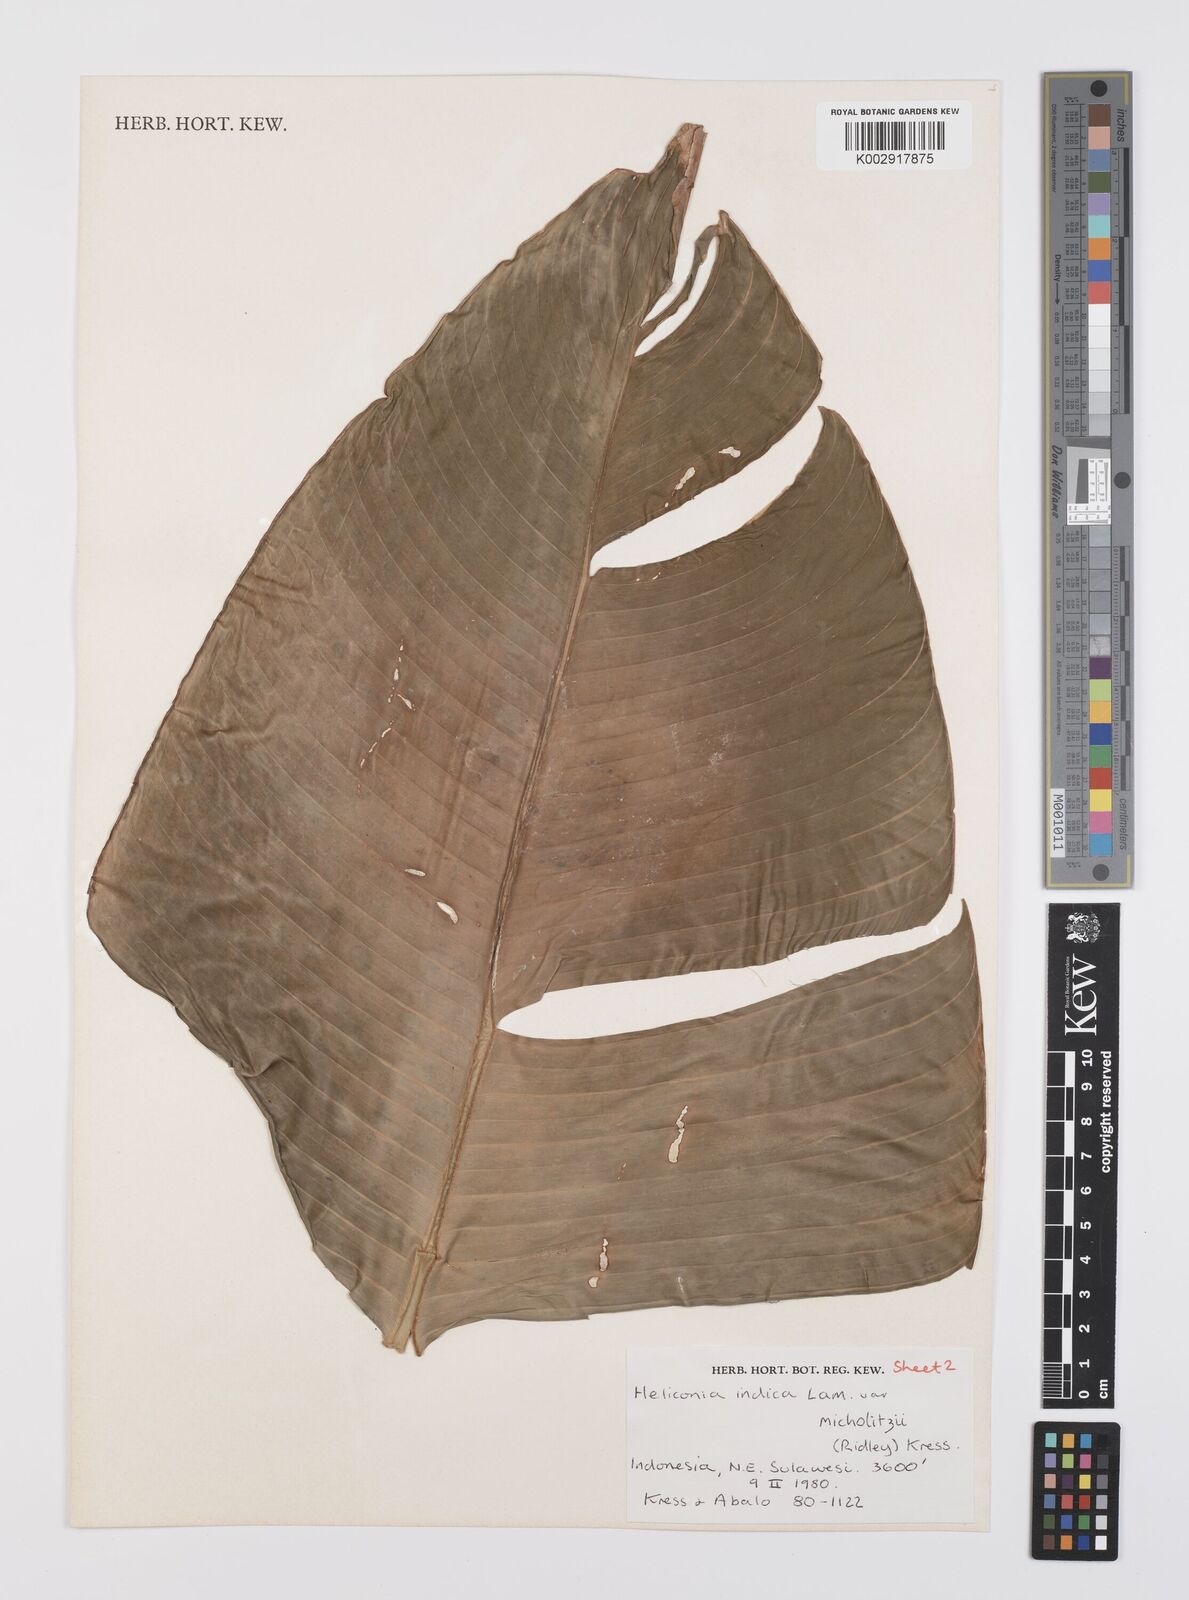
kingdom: Plantae
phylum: Tracheophyta
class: Liliopsida
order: Zingiberales
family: Heliconiaceae
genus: Heliconia
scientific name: Heliconia indica
